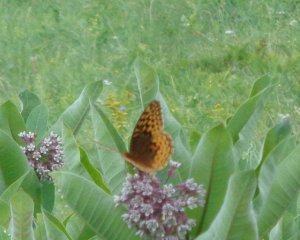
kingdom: Animalia
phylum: Arthropoda
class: Insecta
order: Lepidoptera
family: Nymphalidae
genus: Speyeria
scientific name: Speyeria cybele
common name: Great Spangled Fritillary
